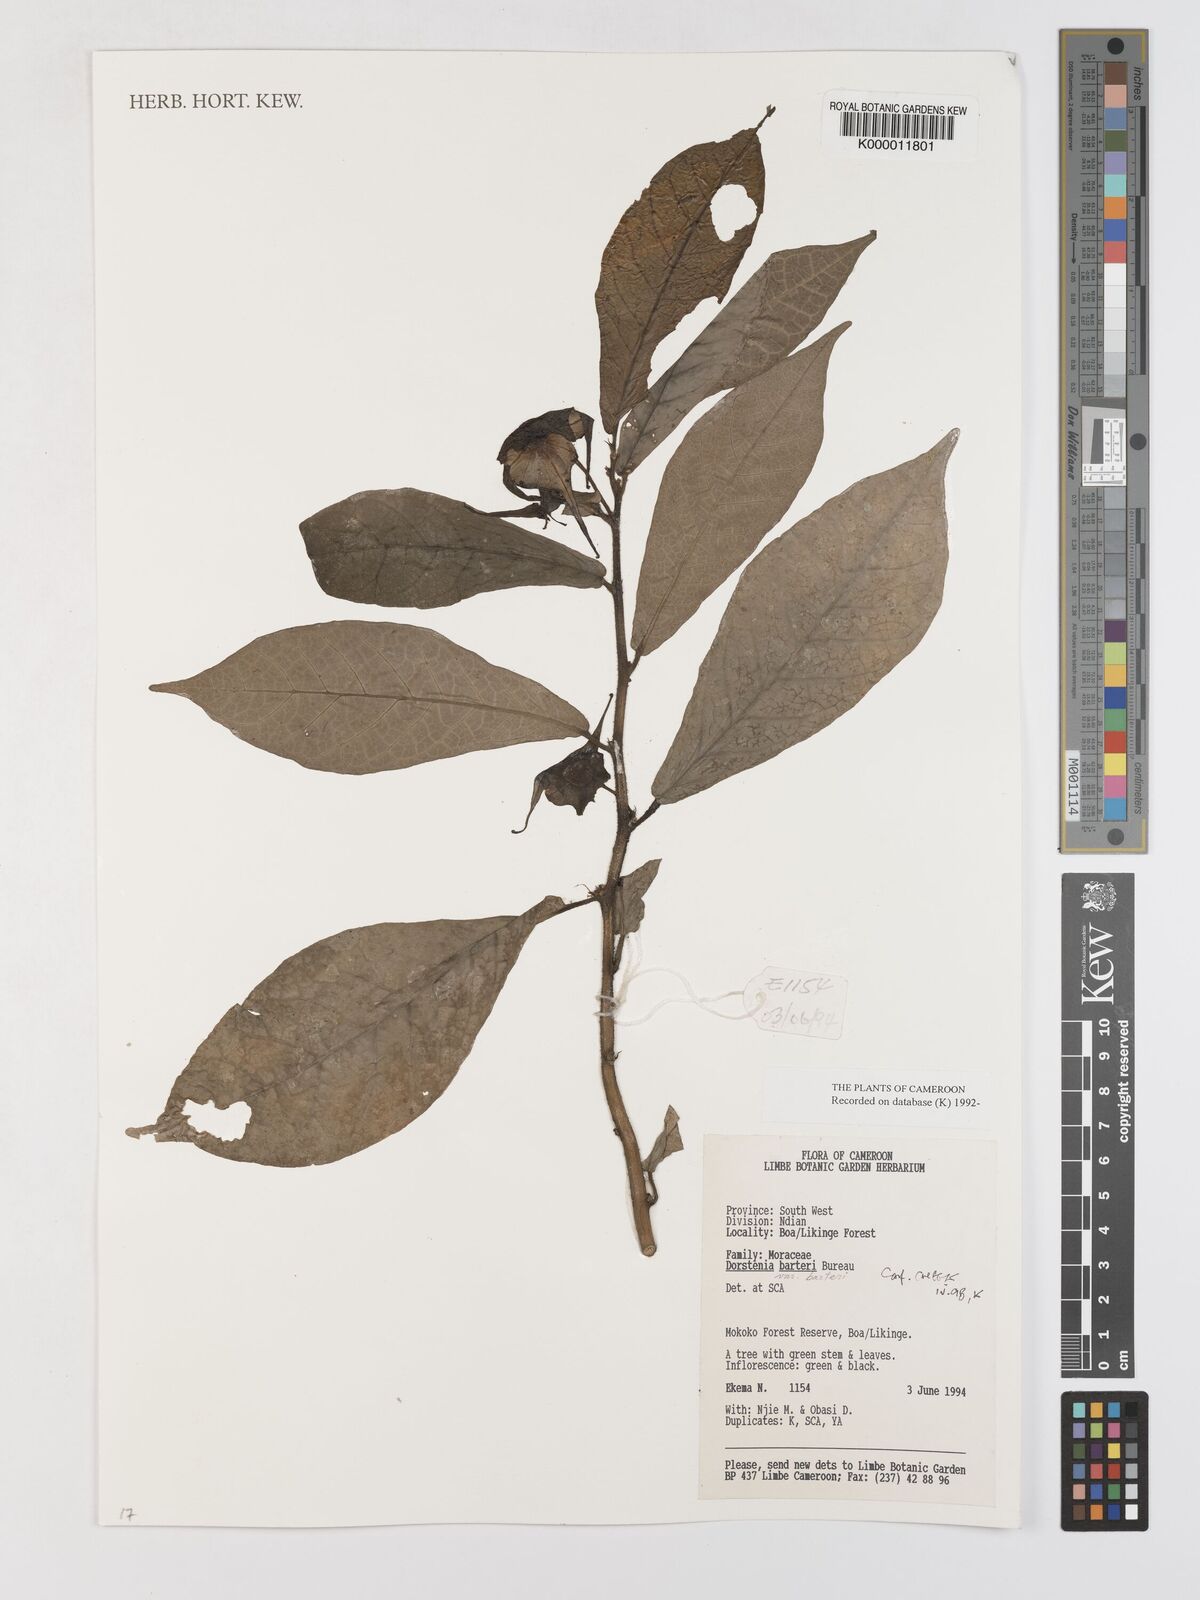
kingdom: Plantae
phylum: Tracheophyta
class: Magnoliopsida
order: Rosales
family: Moraceae
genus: Dorstenia
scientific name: Dorstenia barteri
